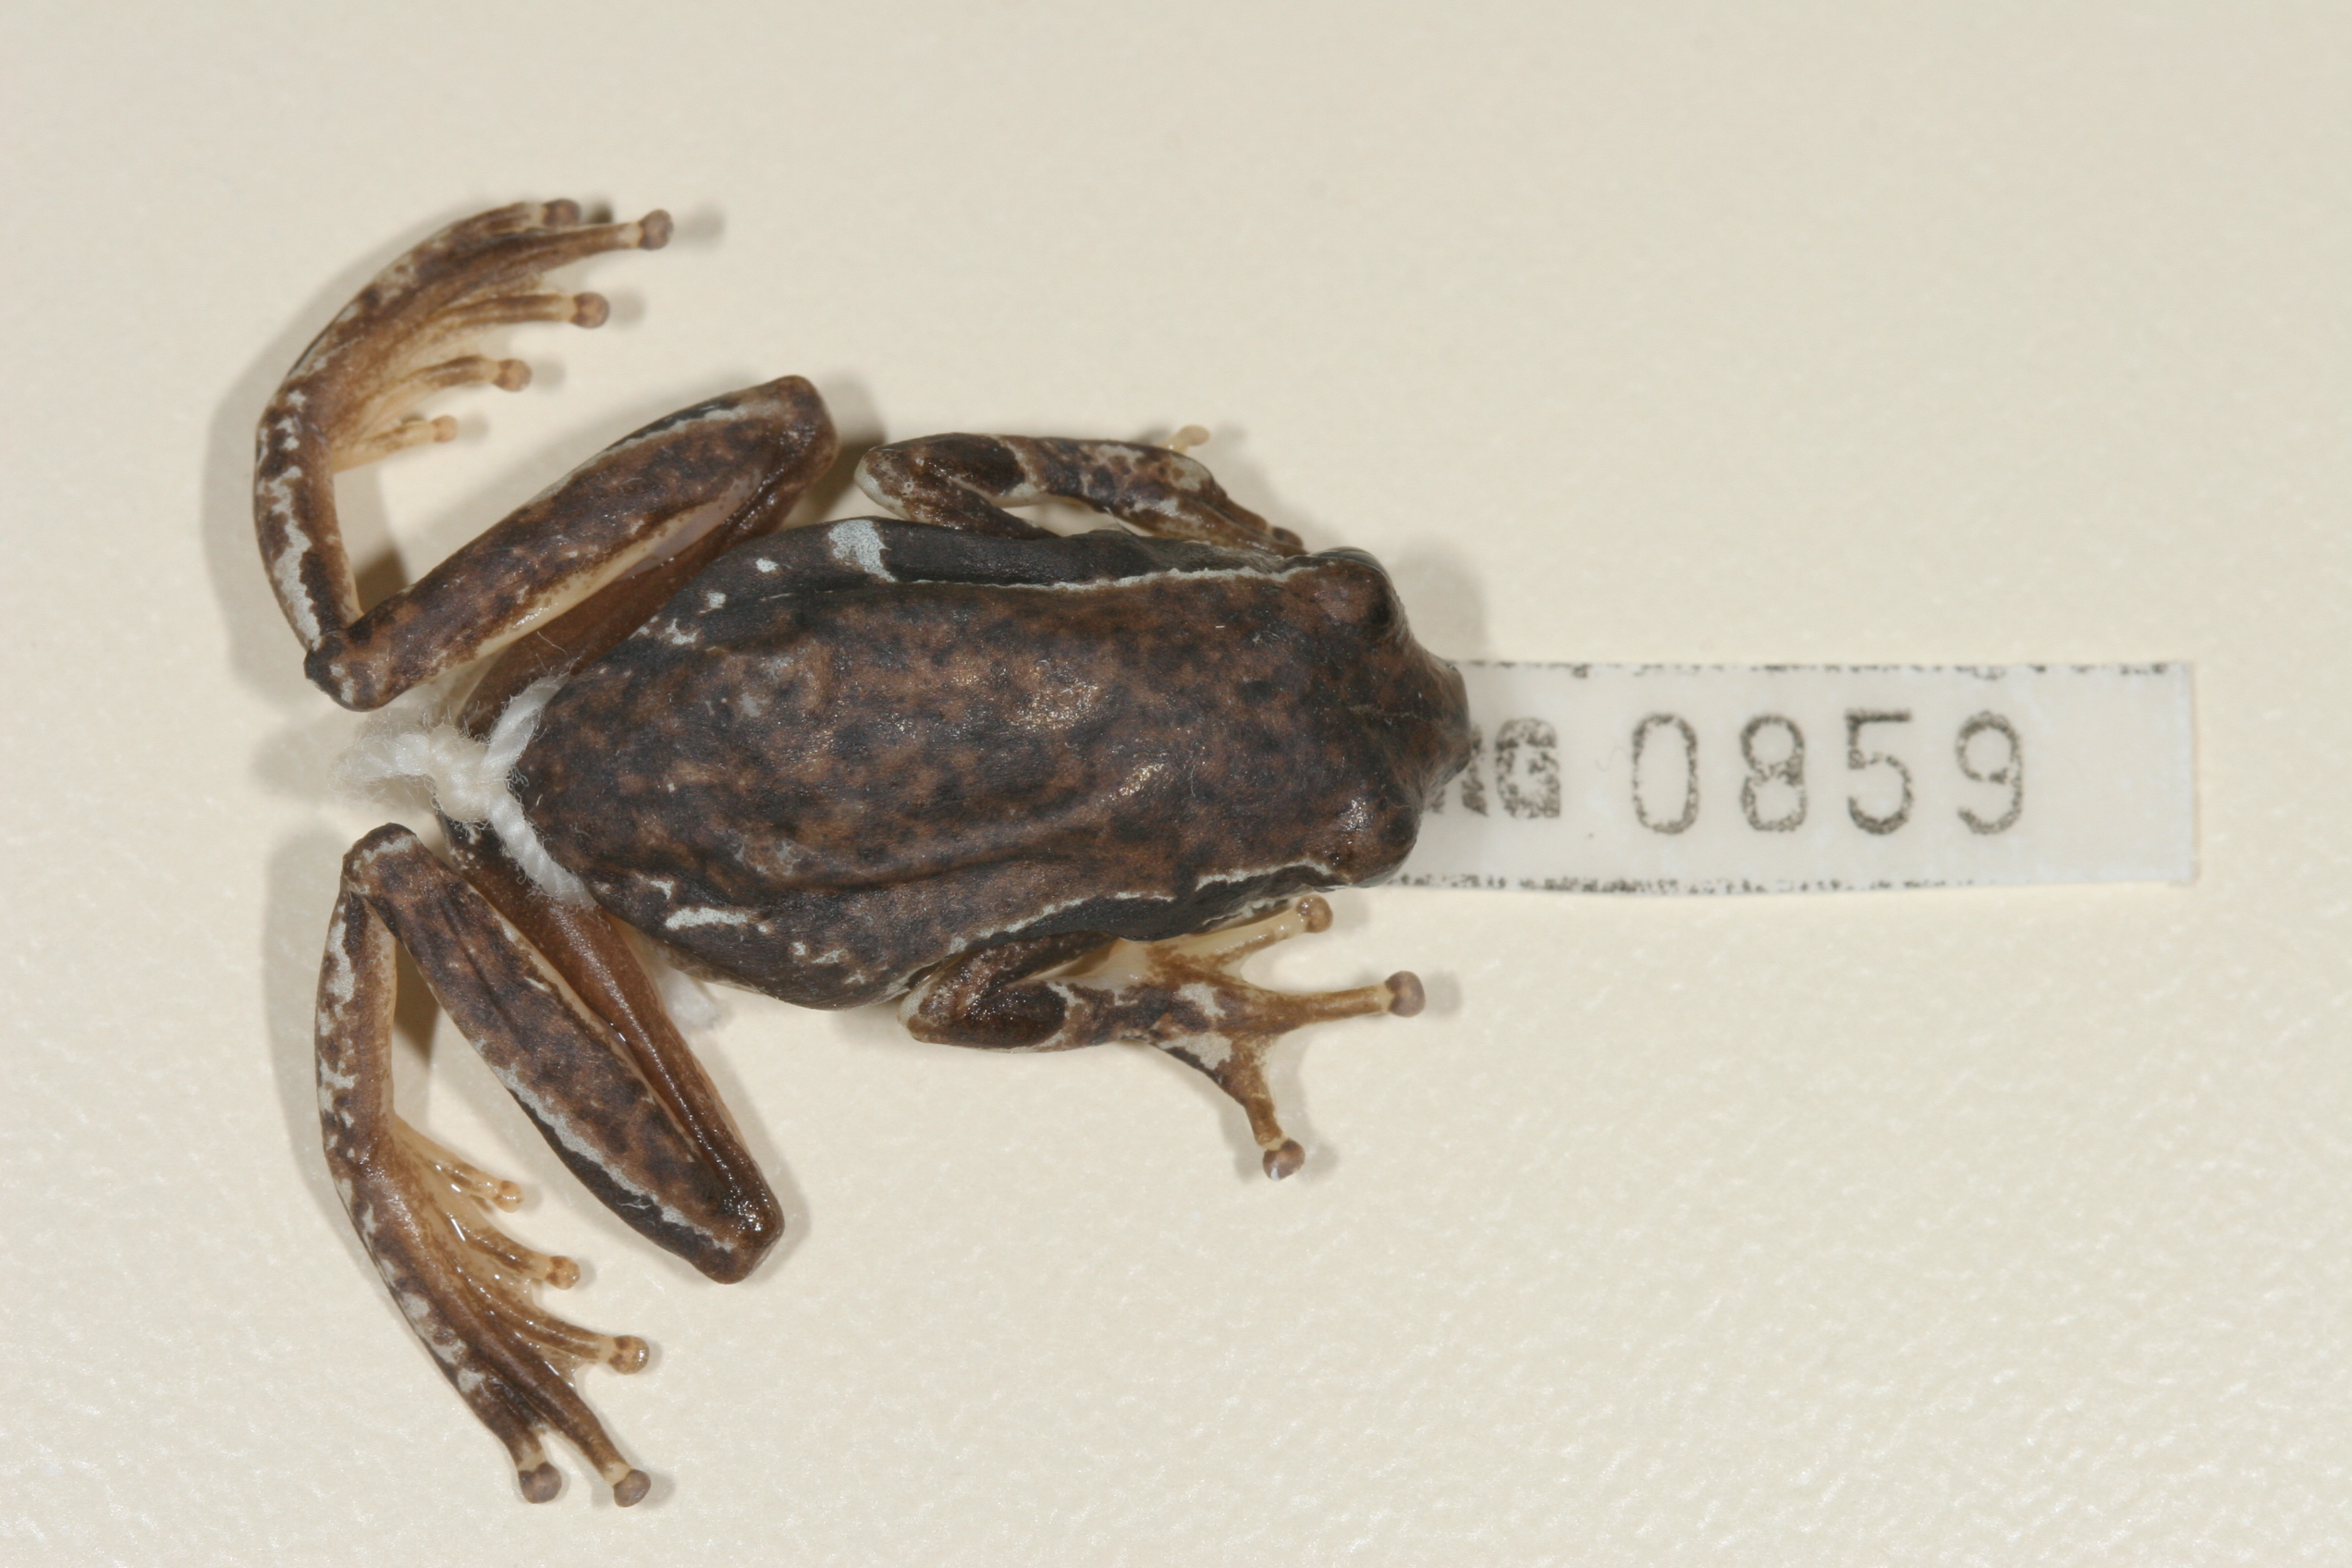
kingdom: Animalia
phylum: Chordata
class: Amphibia
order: Anura
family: Hyperoliidae
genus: Hyperolius
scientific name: Hyperolius viridiflavus
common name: Common reed frog
